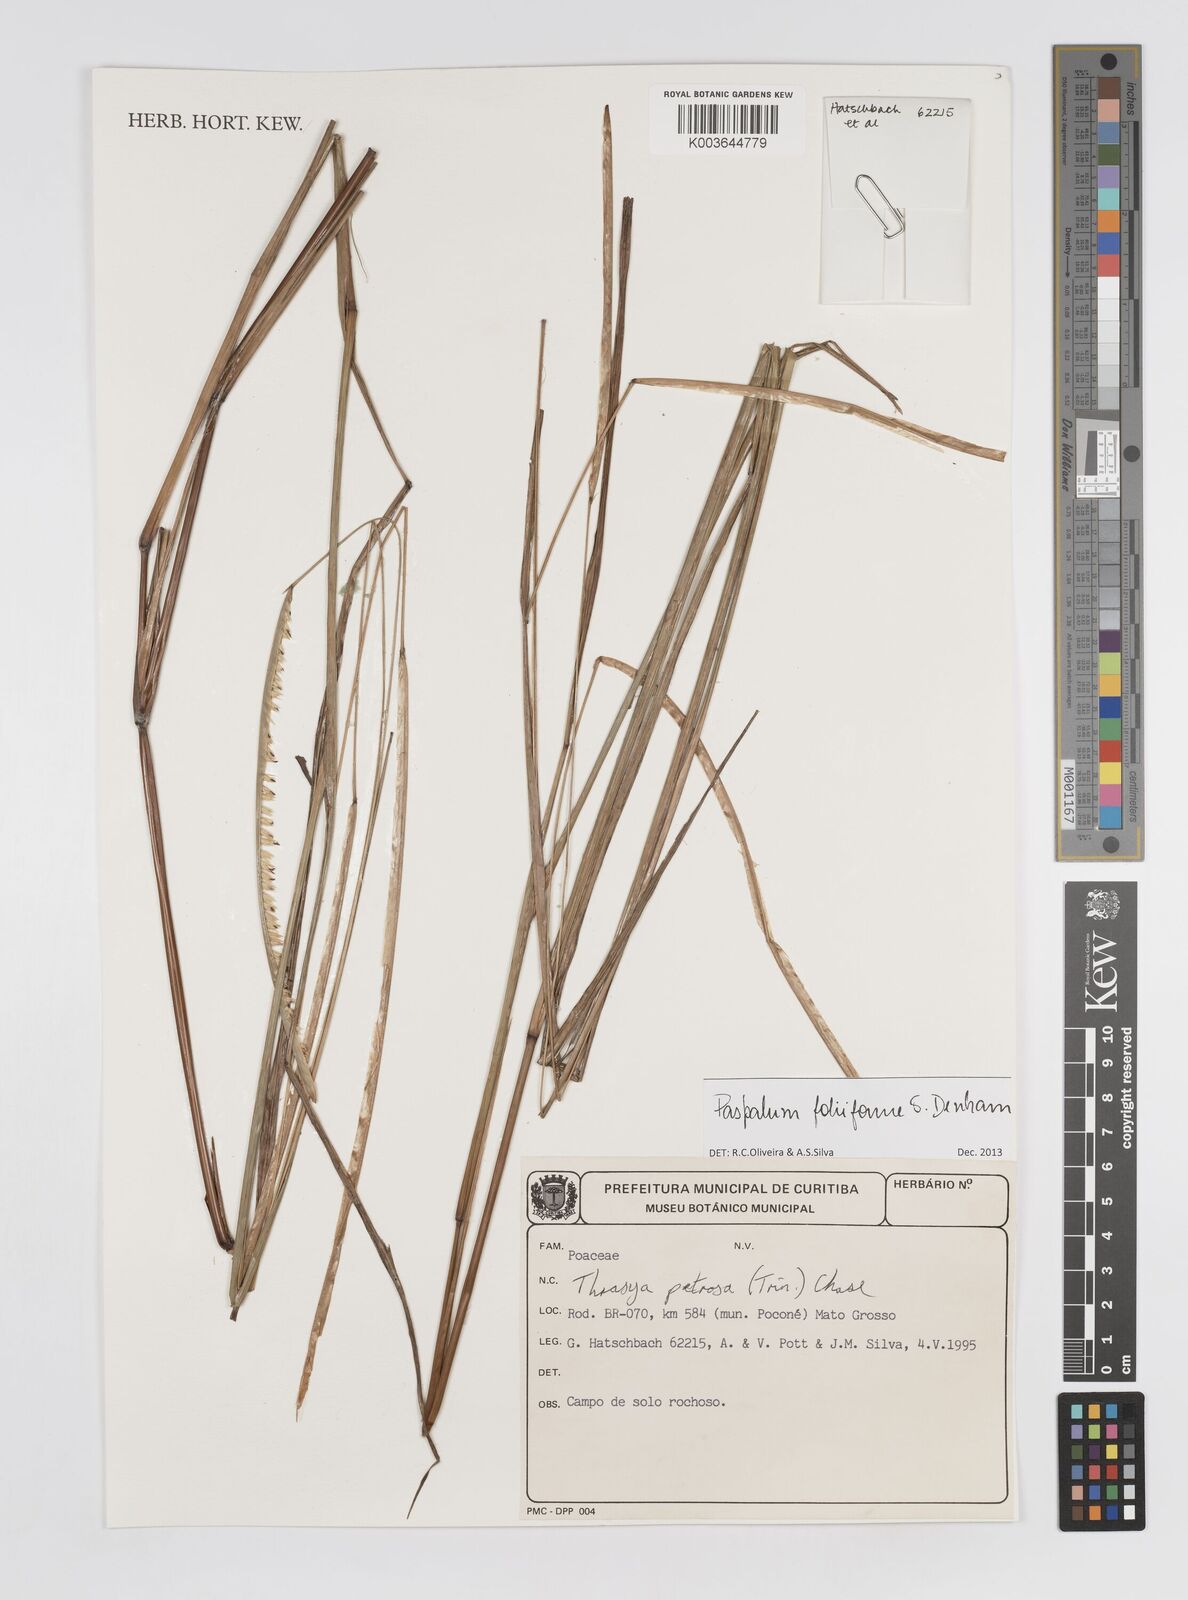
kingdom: Plantae
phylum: Tracheophyta
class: Liliopsida
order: Poales
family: Poaceae
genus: Paspalum
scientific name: Paspalum foliiforme
